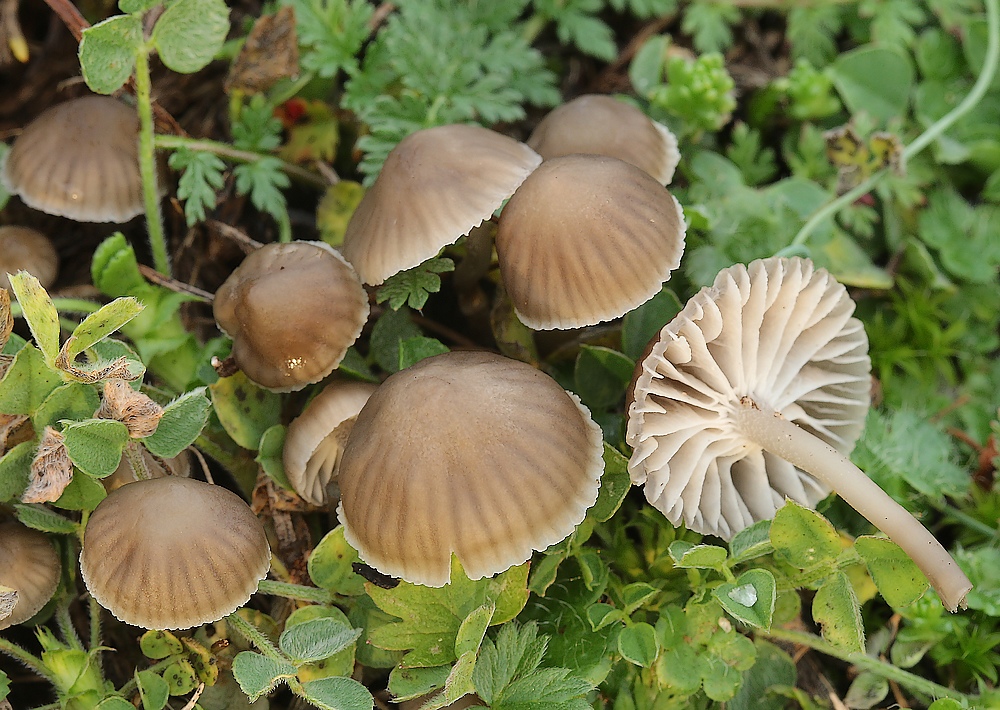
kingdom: Fungi
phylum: Basidiomycota
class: Agaricomycetes
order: Agaricales
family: Mycenaceae
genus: Mycena
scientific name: Mycena pseudopicta
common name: overdrevs-huesvamp
